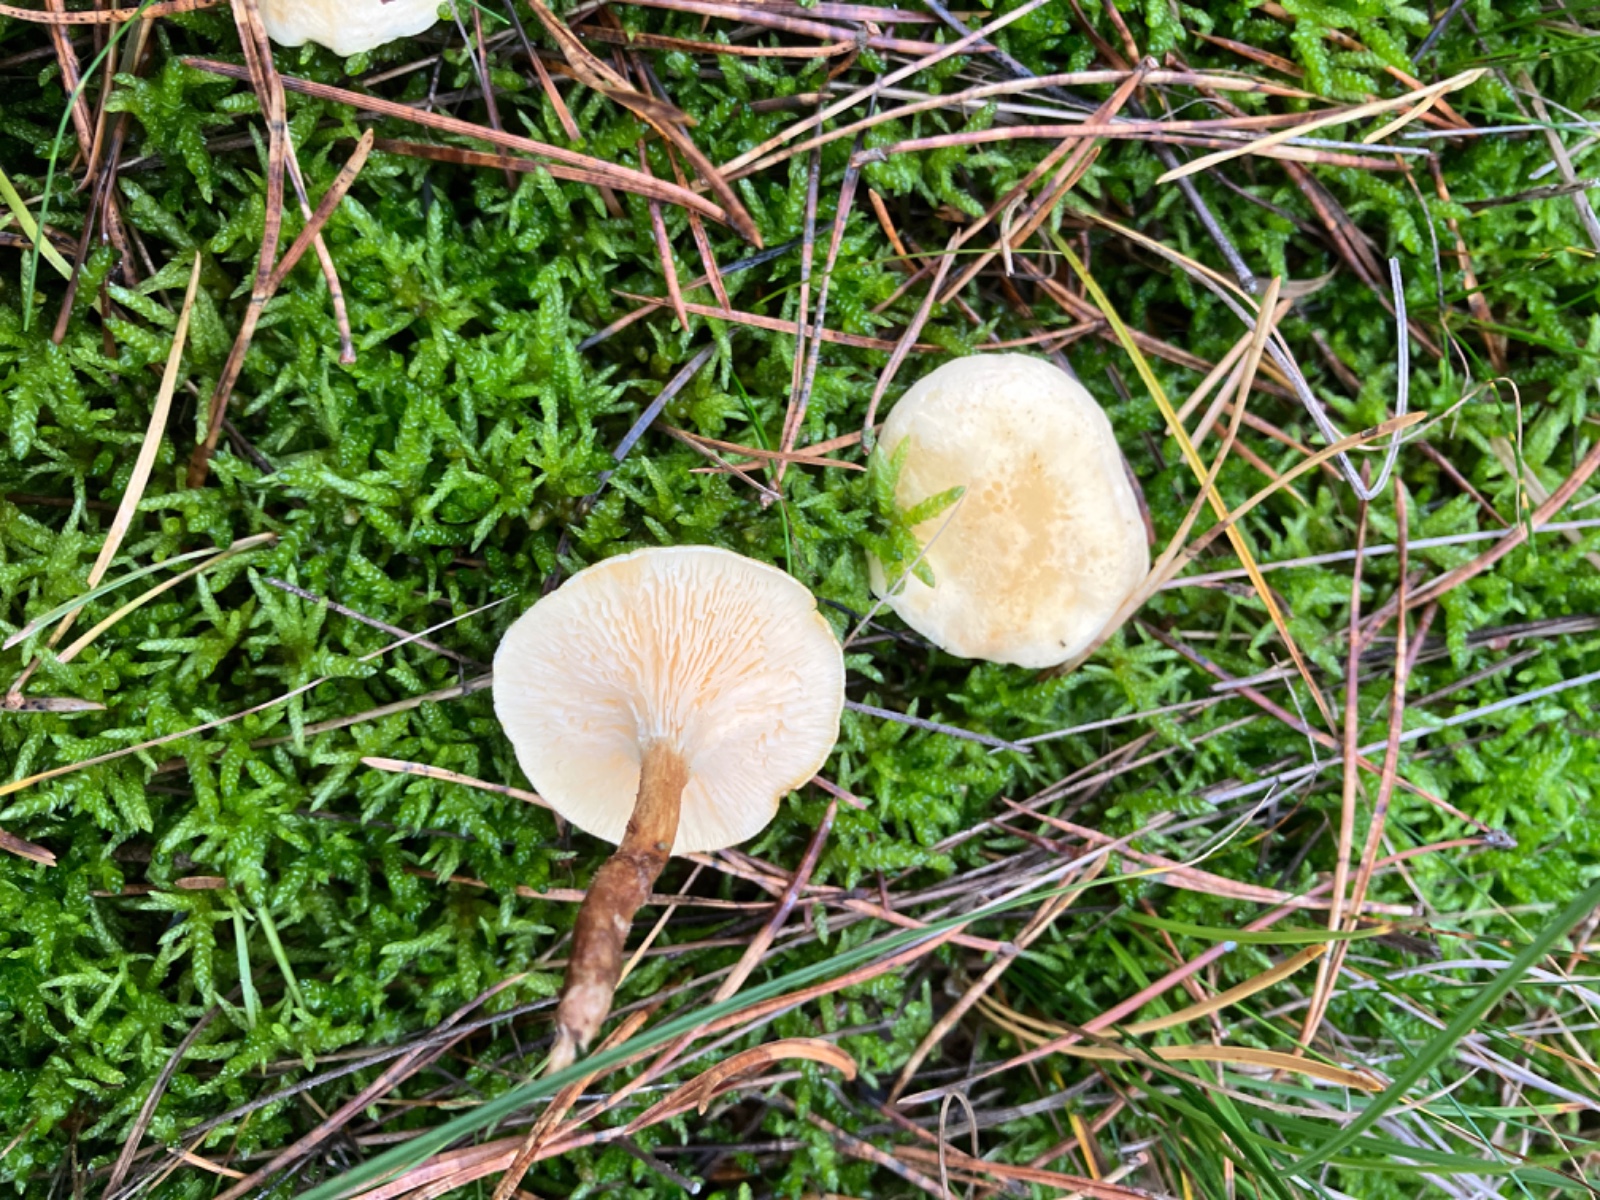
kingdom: Fungi
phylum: Basidiomycota
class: Agaricomycetes
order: Boletales
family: Hygrophoropsidaceae
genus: Hygrophoropsis
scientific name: Hygrophoropsis pallida
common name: bleg orangekantarel
